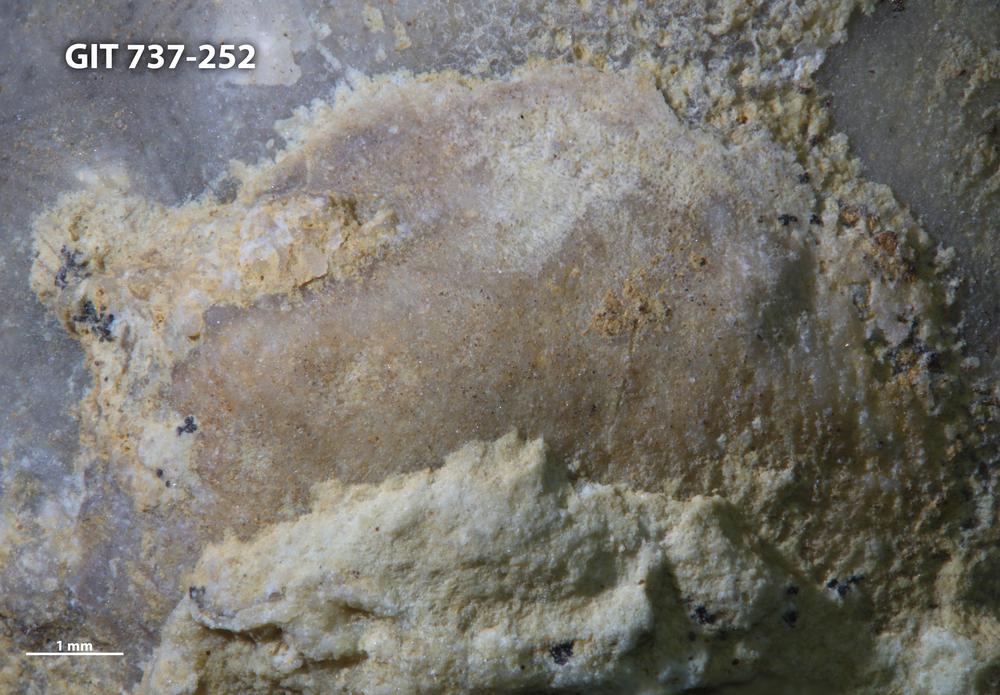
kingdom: Animalia
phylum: Brachiopoda
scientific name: Brachiopoda
